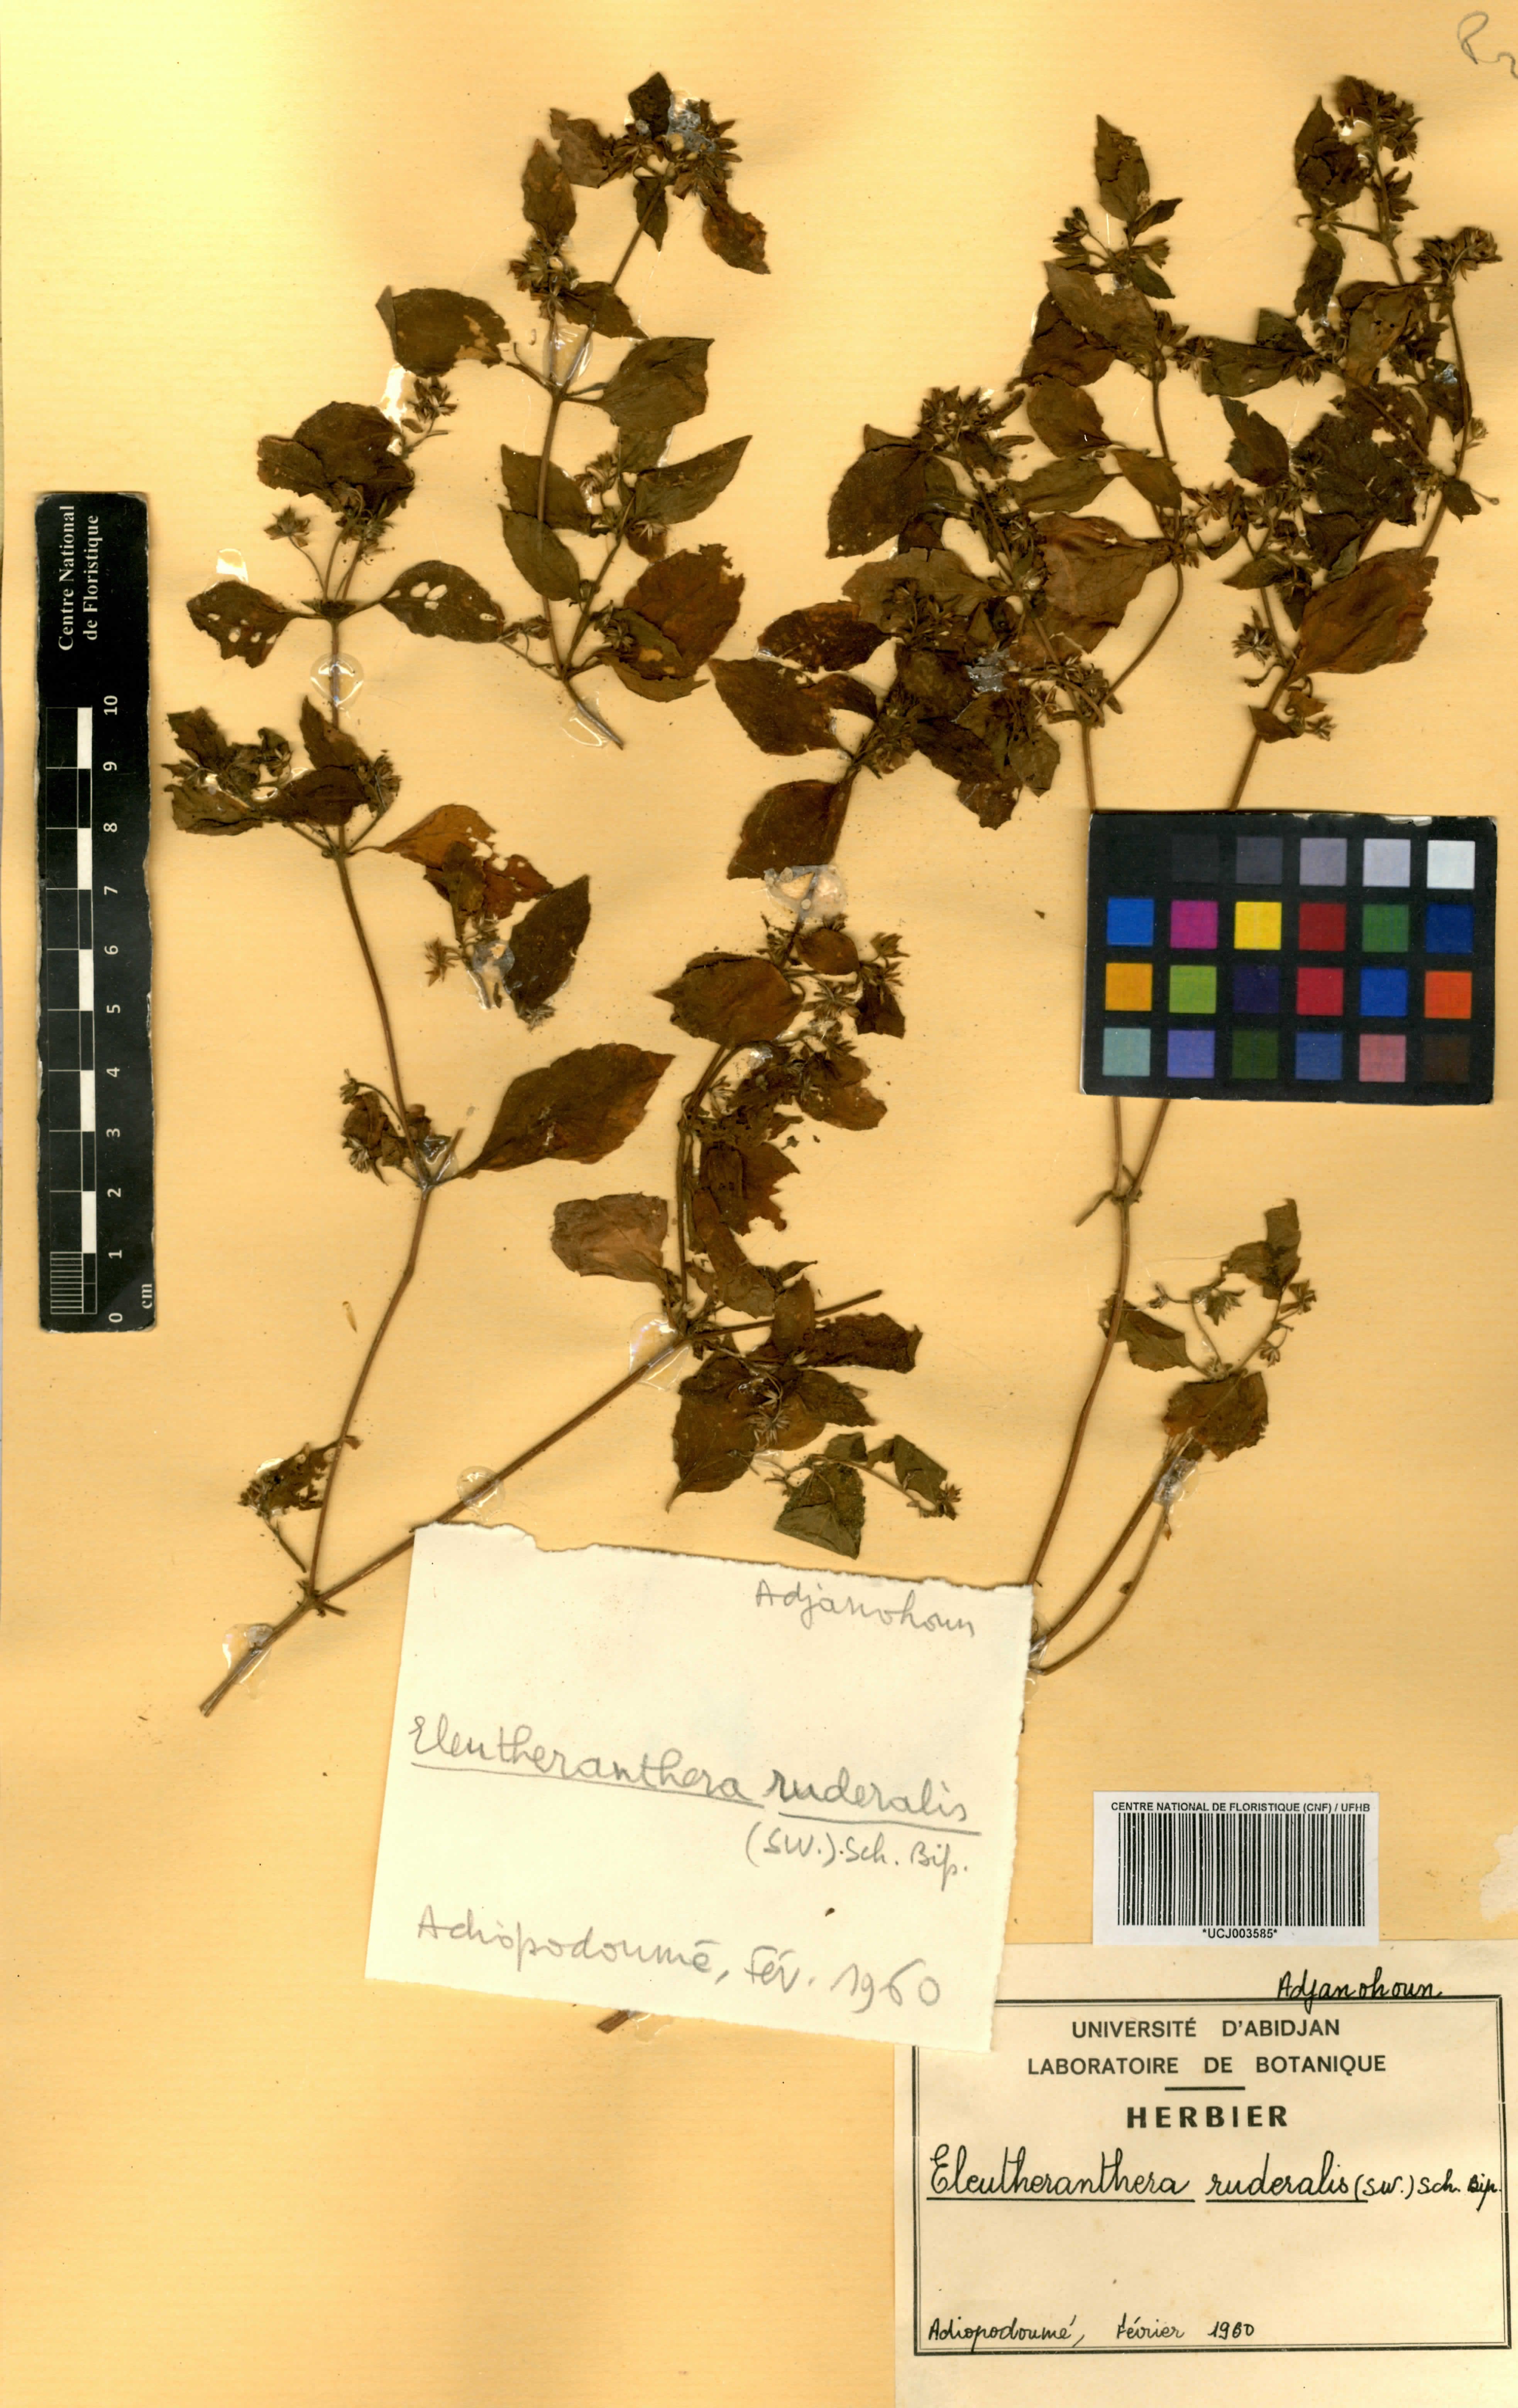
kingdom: Plantae
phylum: Tracheophyta
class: Magnoliopsida
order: Asterales
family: Asteraceae
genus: Eleutheranthera
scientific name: Eleutheranthera ruderalis
